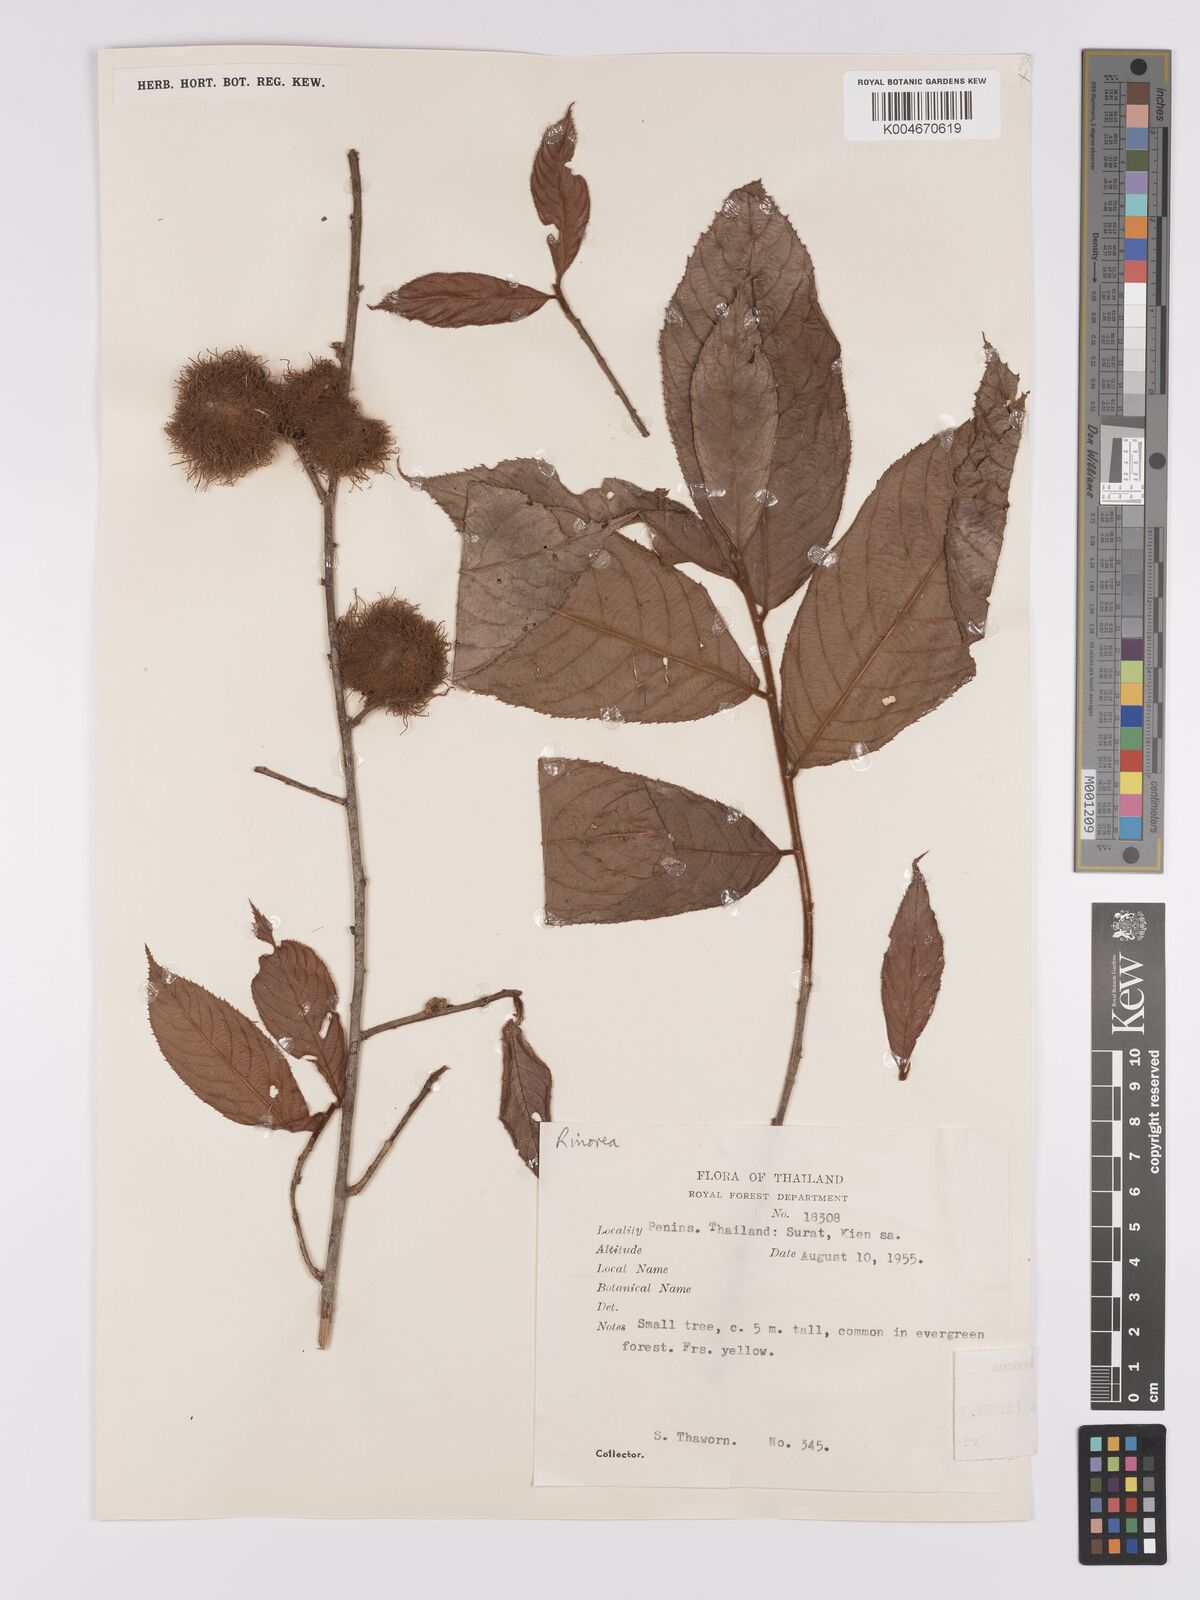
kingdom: Plantae
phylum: Tracheophyta
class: Magnoliopsida
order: Malpighiales
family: Violaceae
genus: Rinorea
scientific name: Rinorea anguifera
